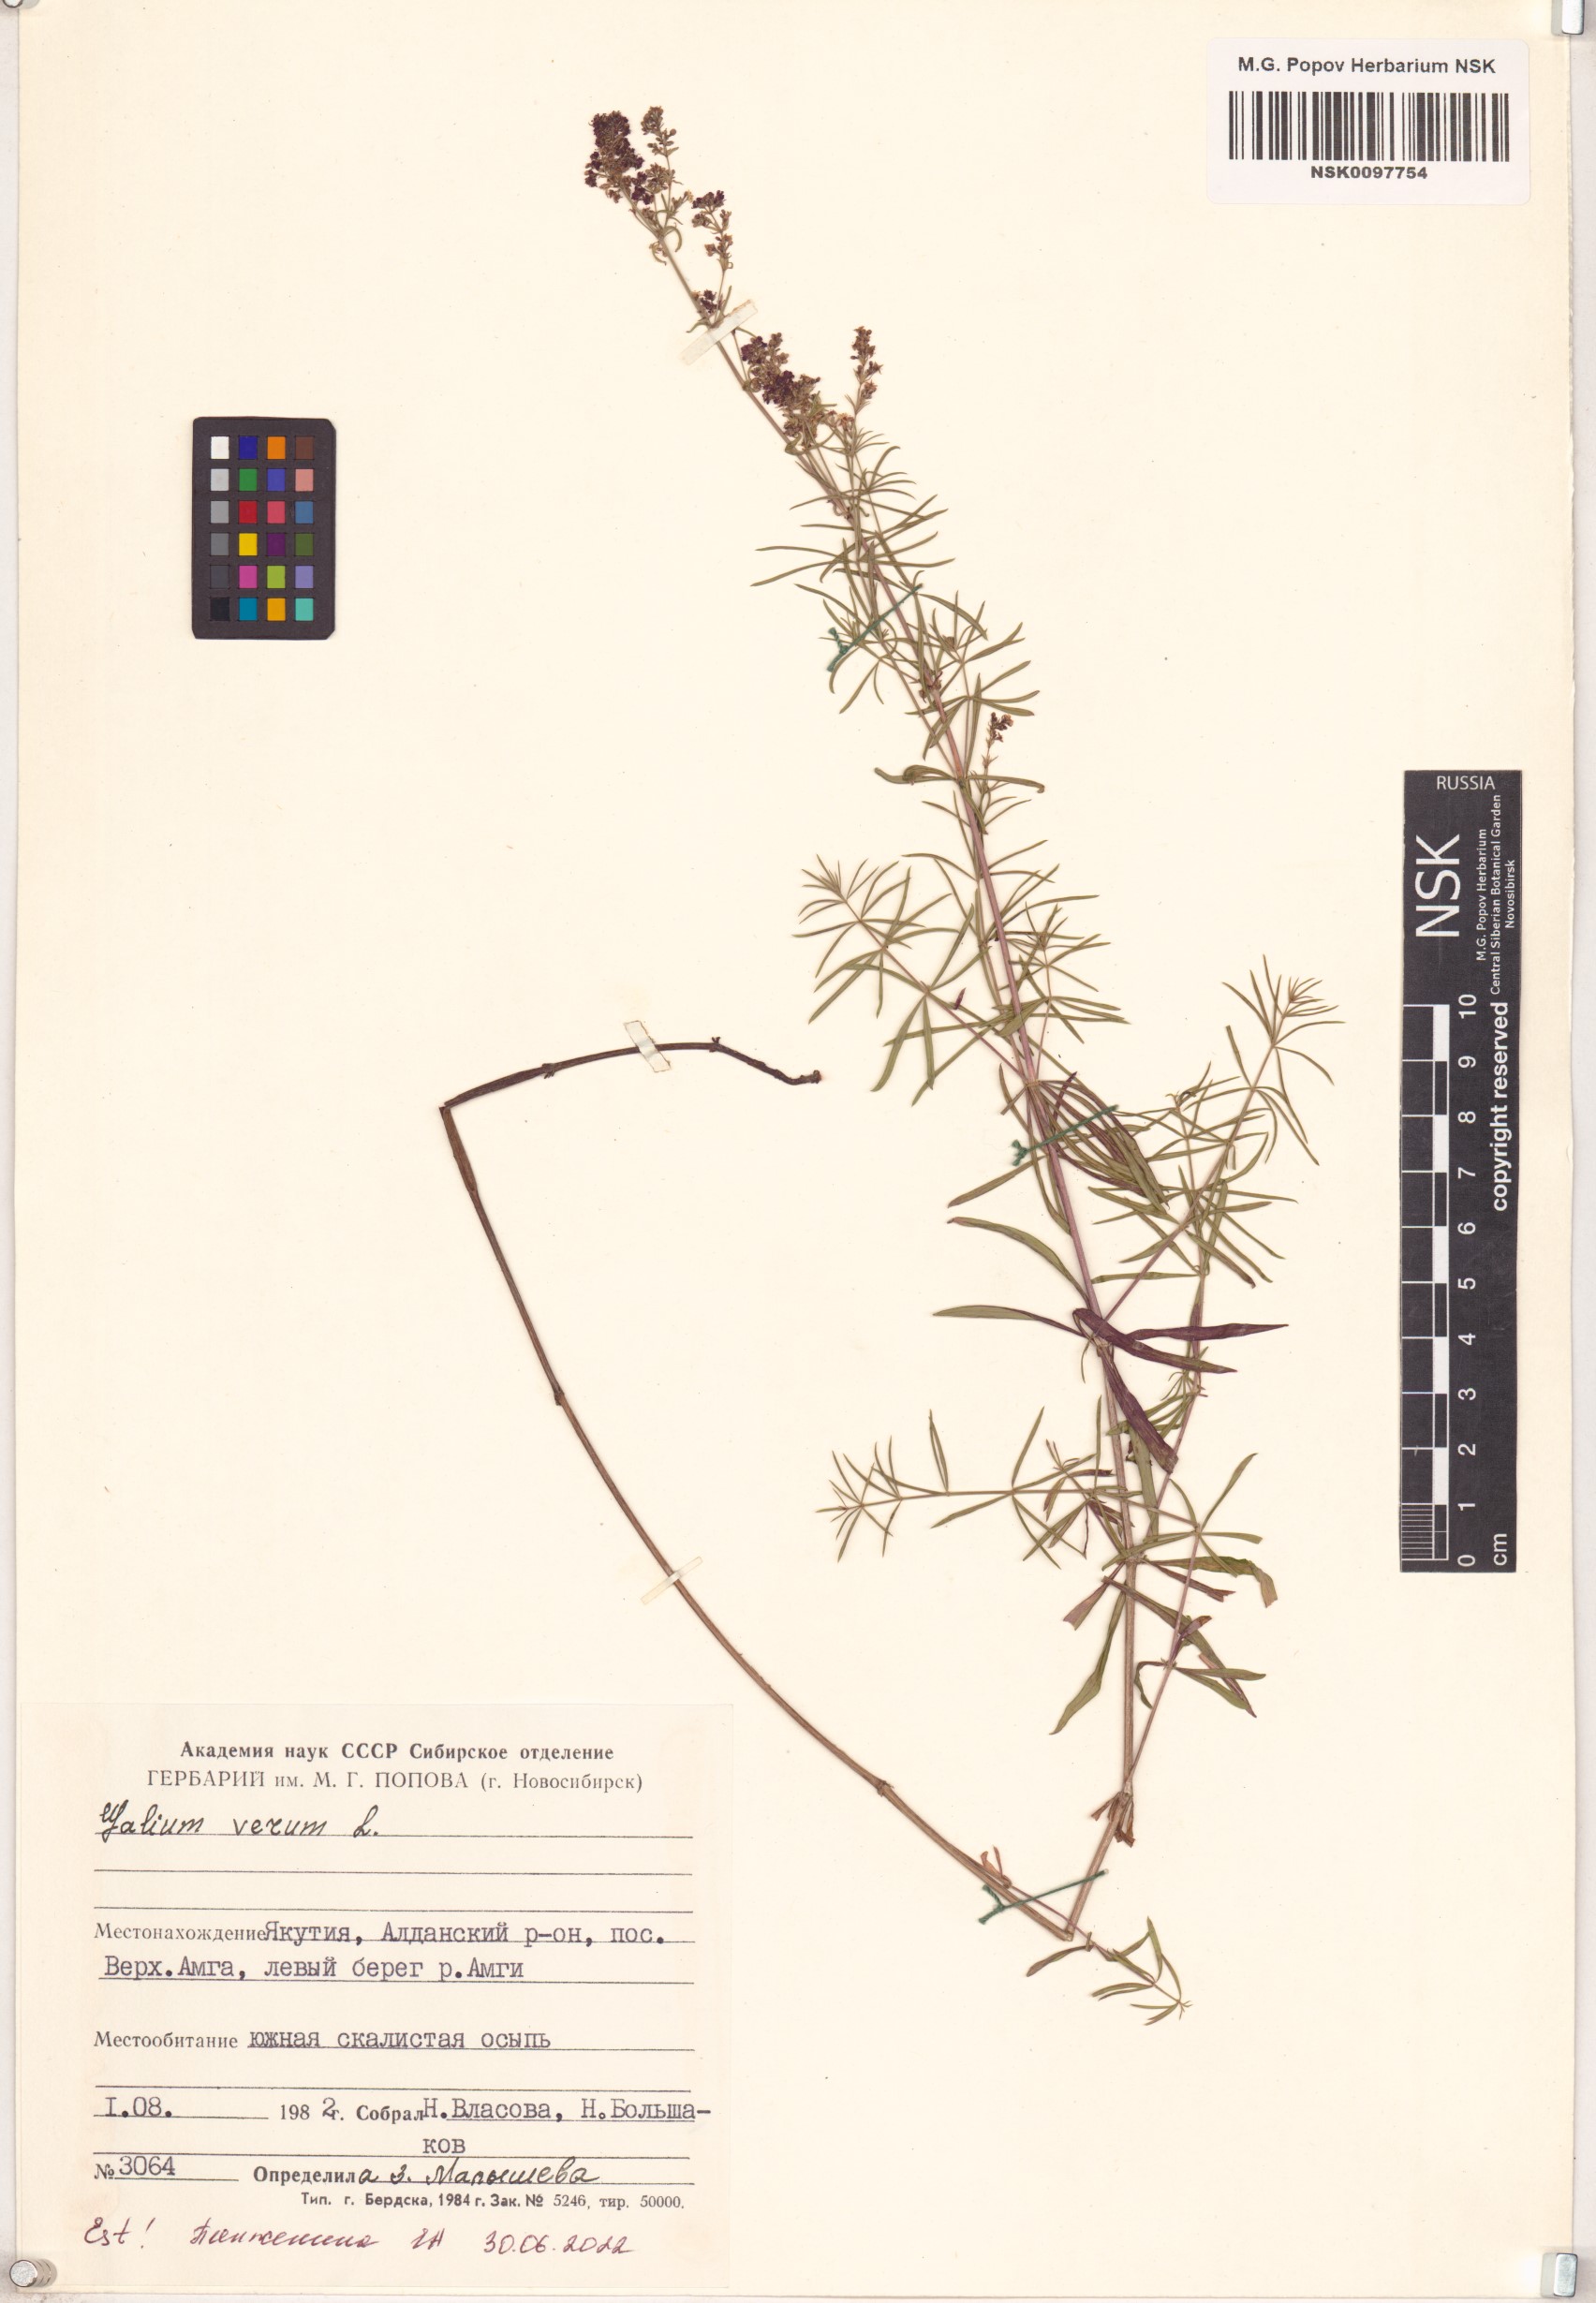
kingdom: Plantae
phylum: Tracheophyta
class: Magnoliopsida
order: Gentianales
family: Rubiaceae
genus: Galium
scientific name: Galium verum
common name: Lady's bedstraw
